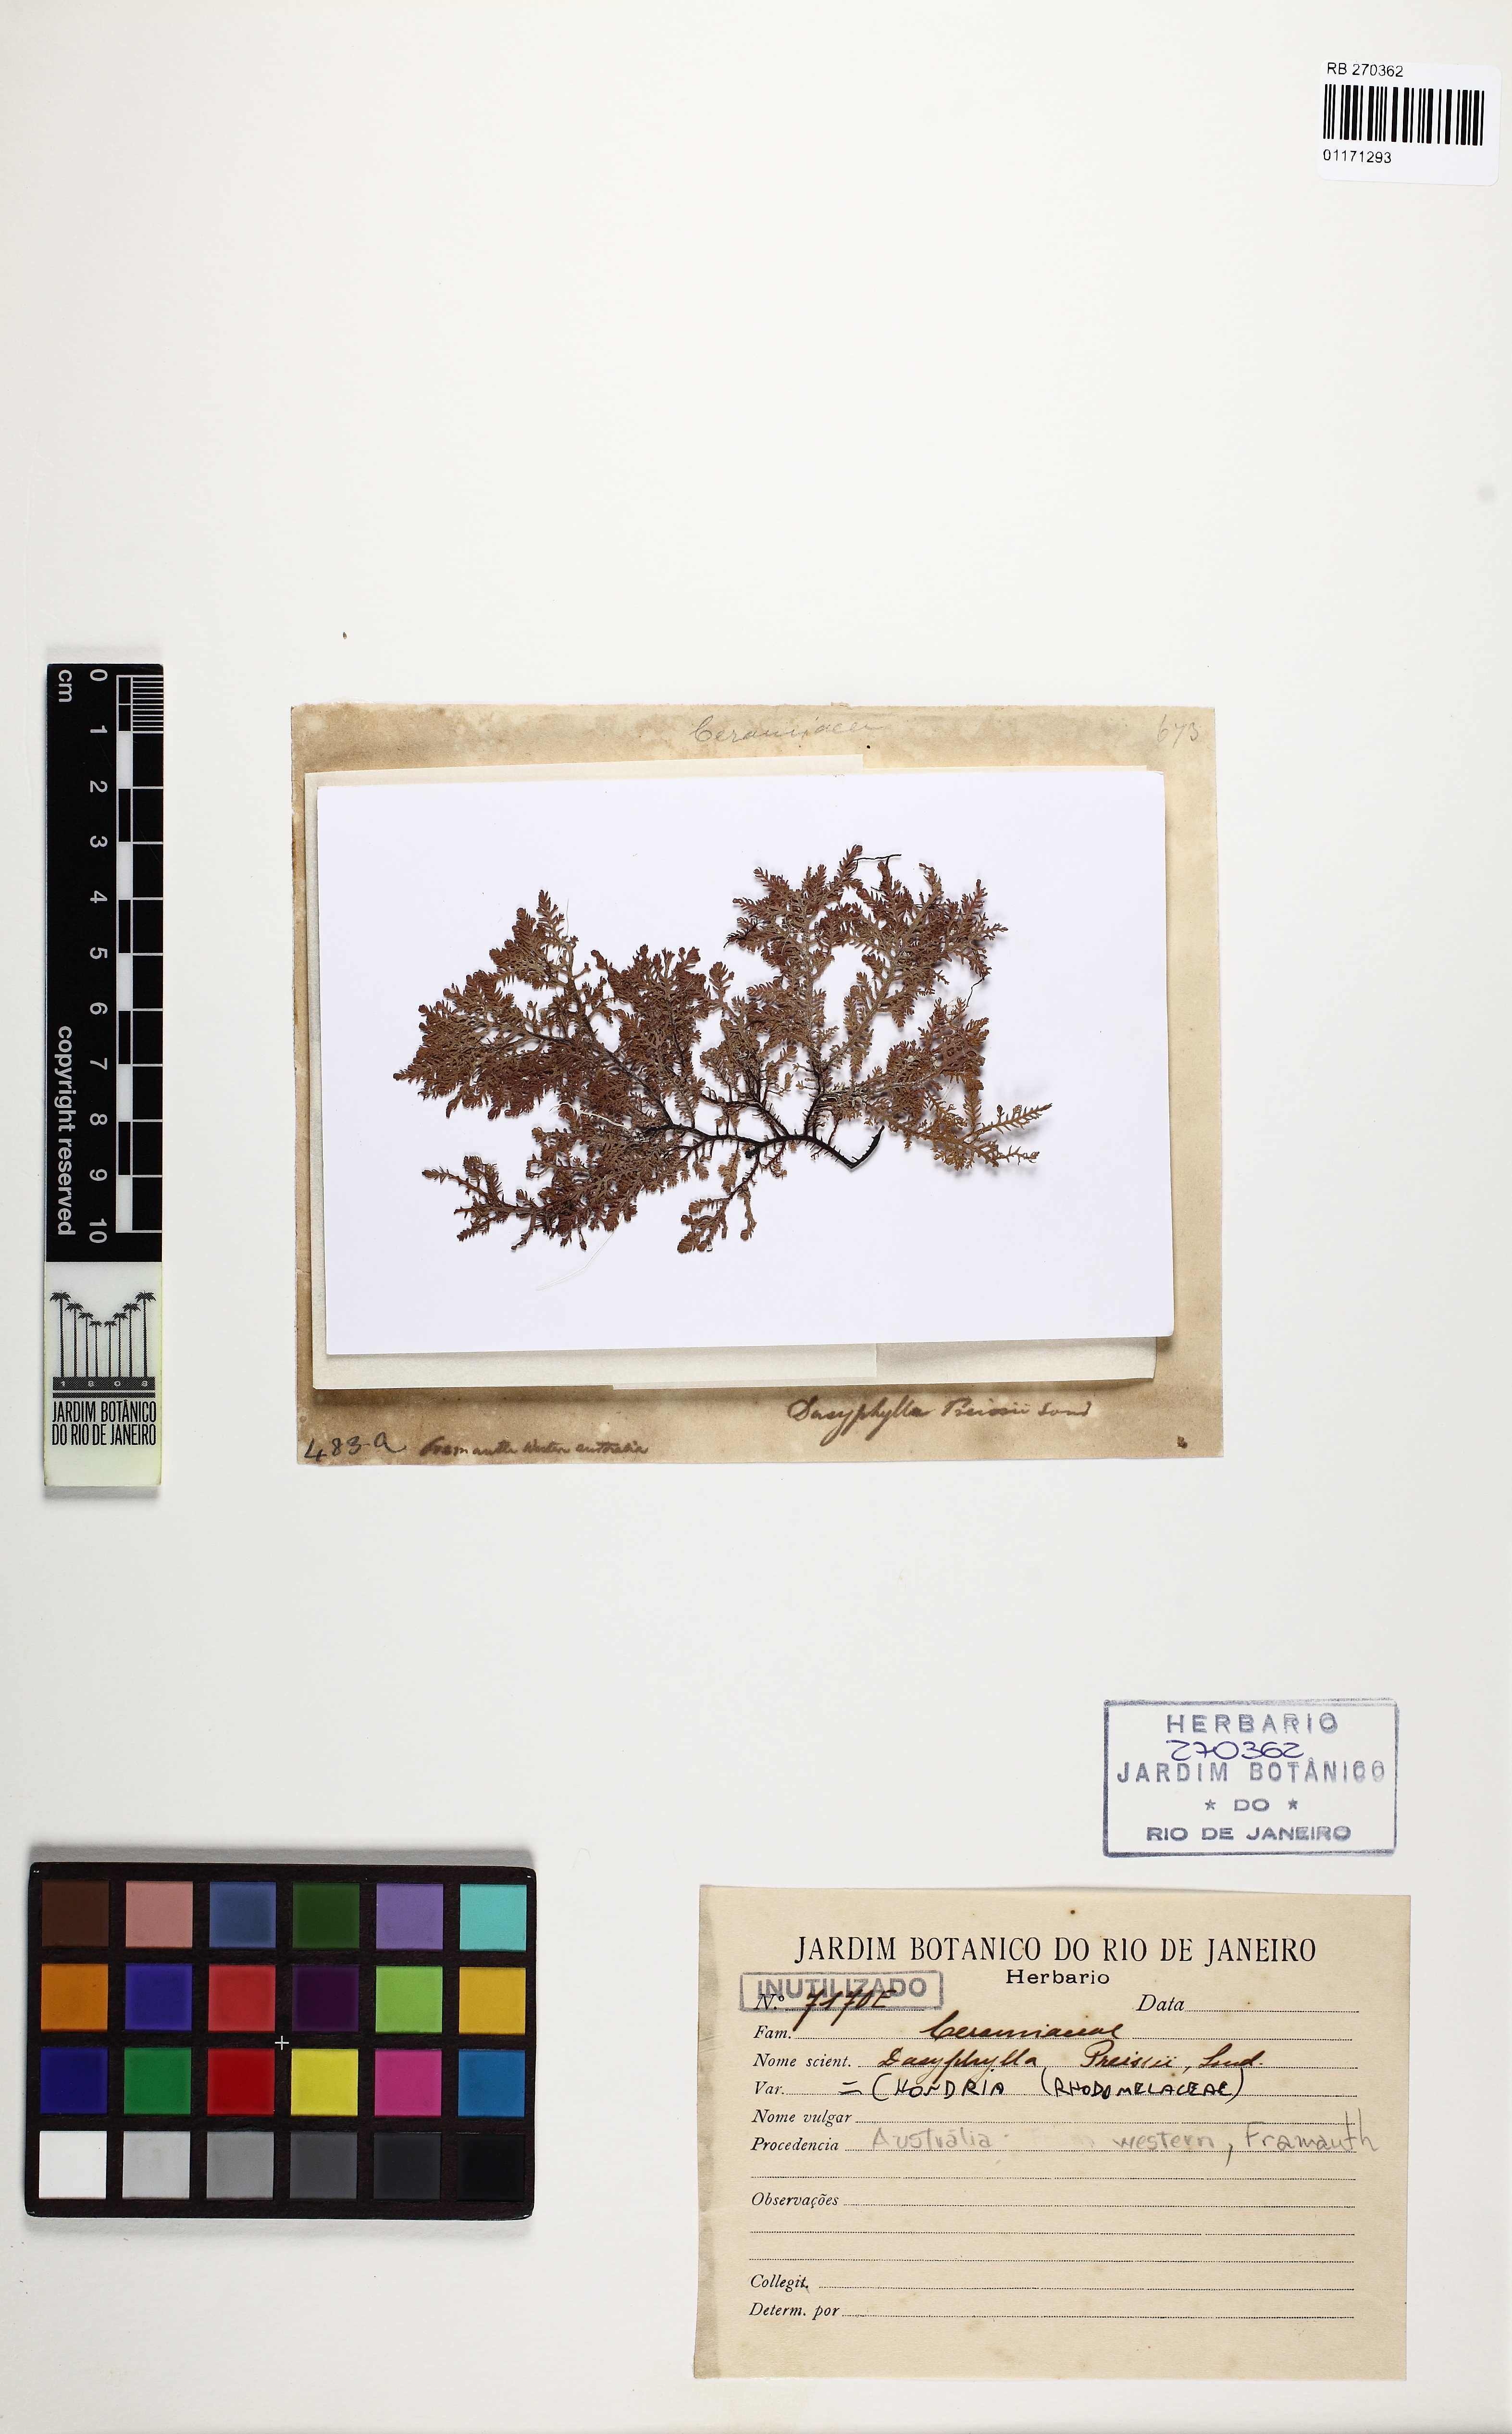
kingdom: Plantae
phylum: Rhodophyta
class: Florideophyceae
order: Ceramiales
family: Rhodomelaceae
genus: Chondria
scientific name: Chondria
